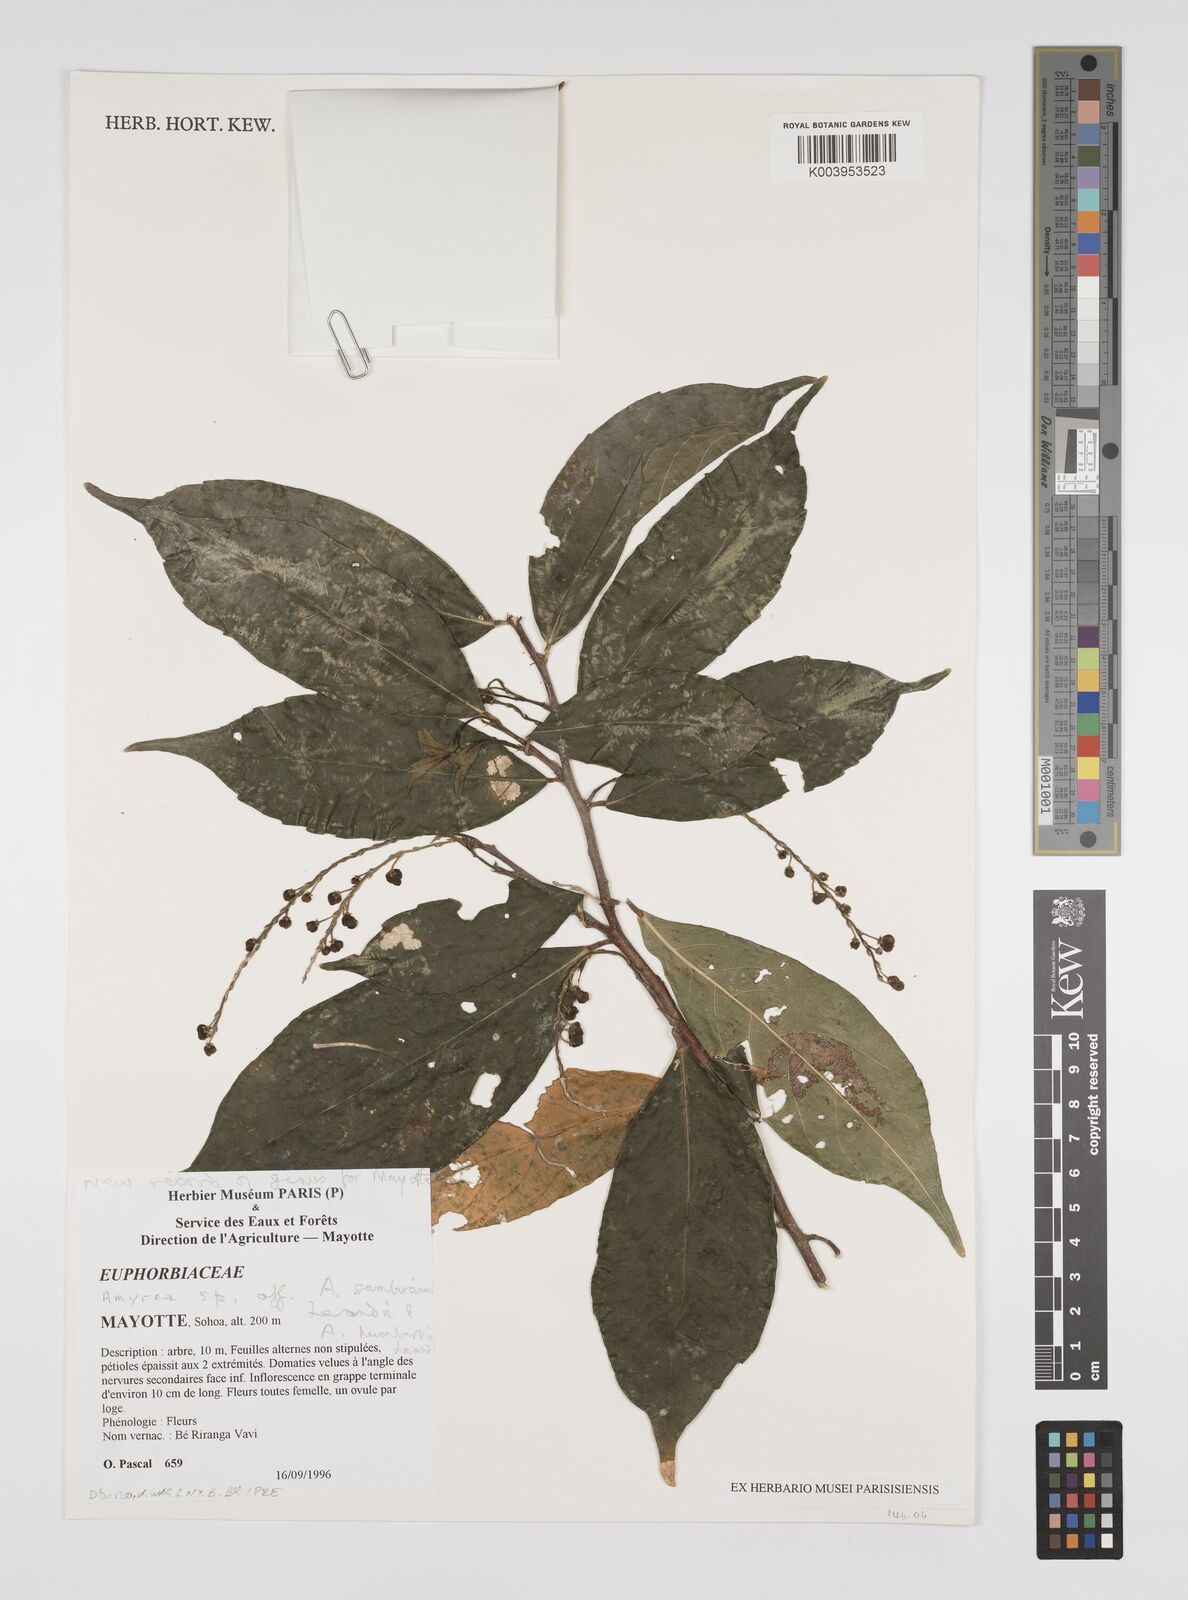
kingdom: Plantae
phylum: Tracheophyta
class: Magnoliopsida
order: Malpighiales
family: Euphorbiaceae
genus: Amyrea
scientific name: Amyrea sambiranensis
